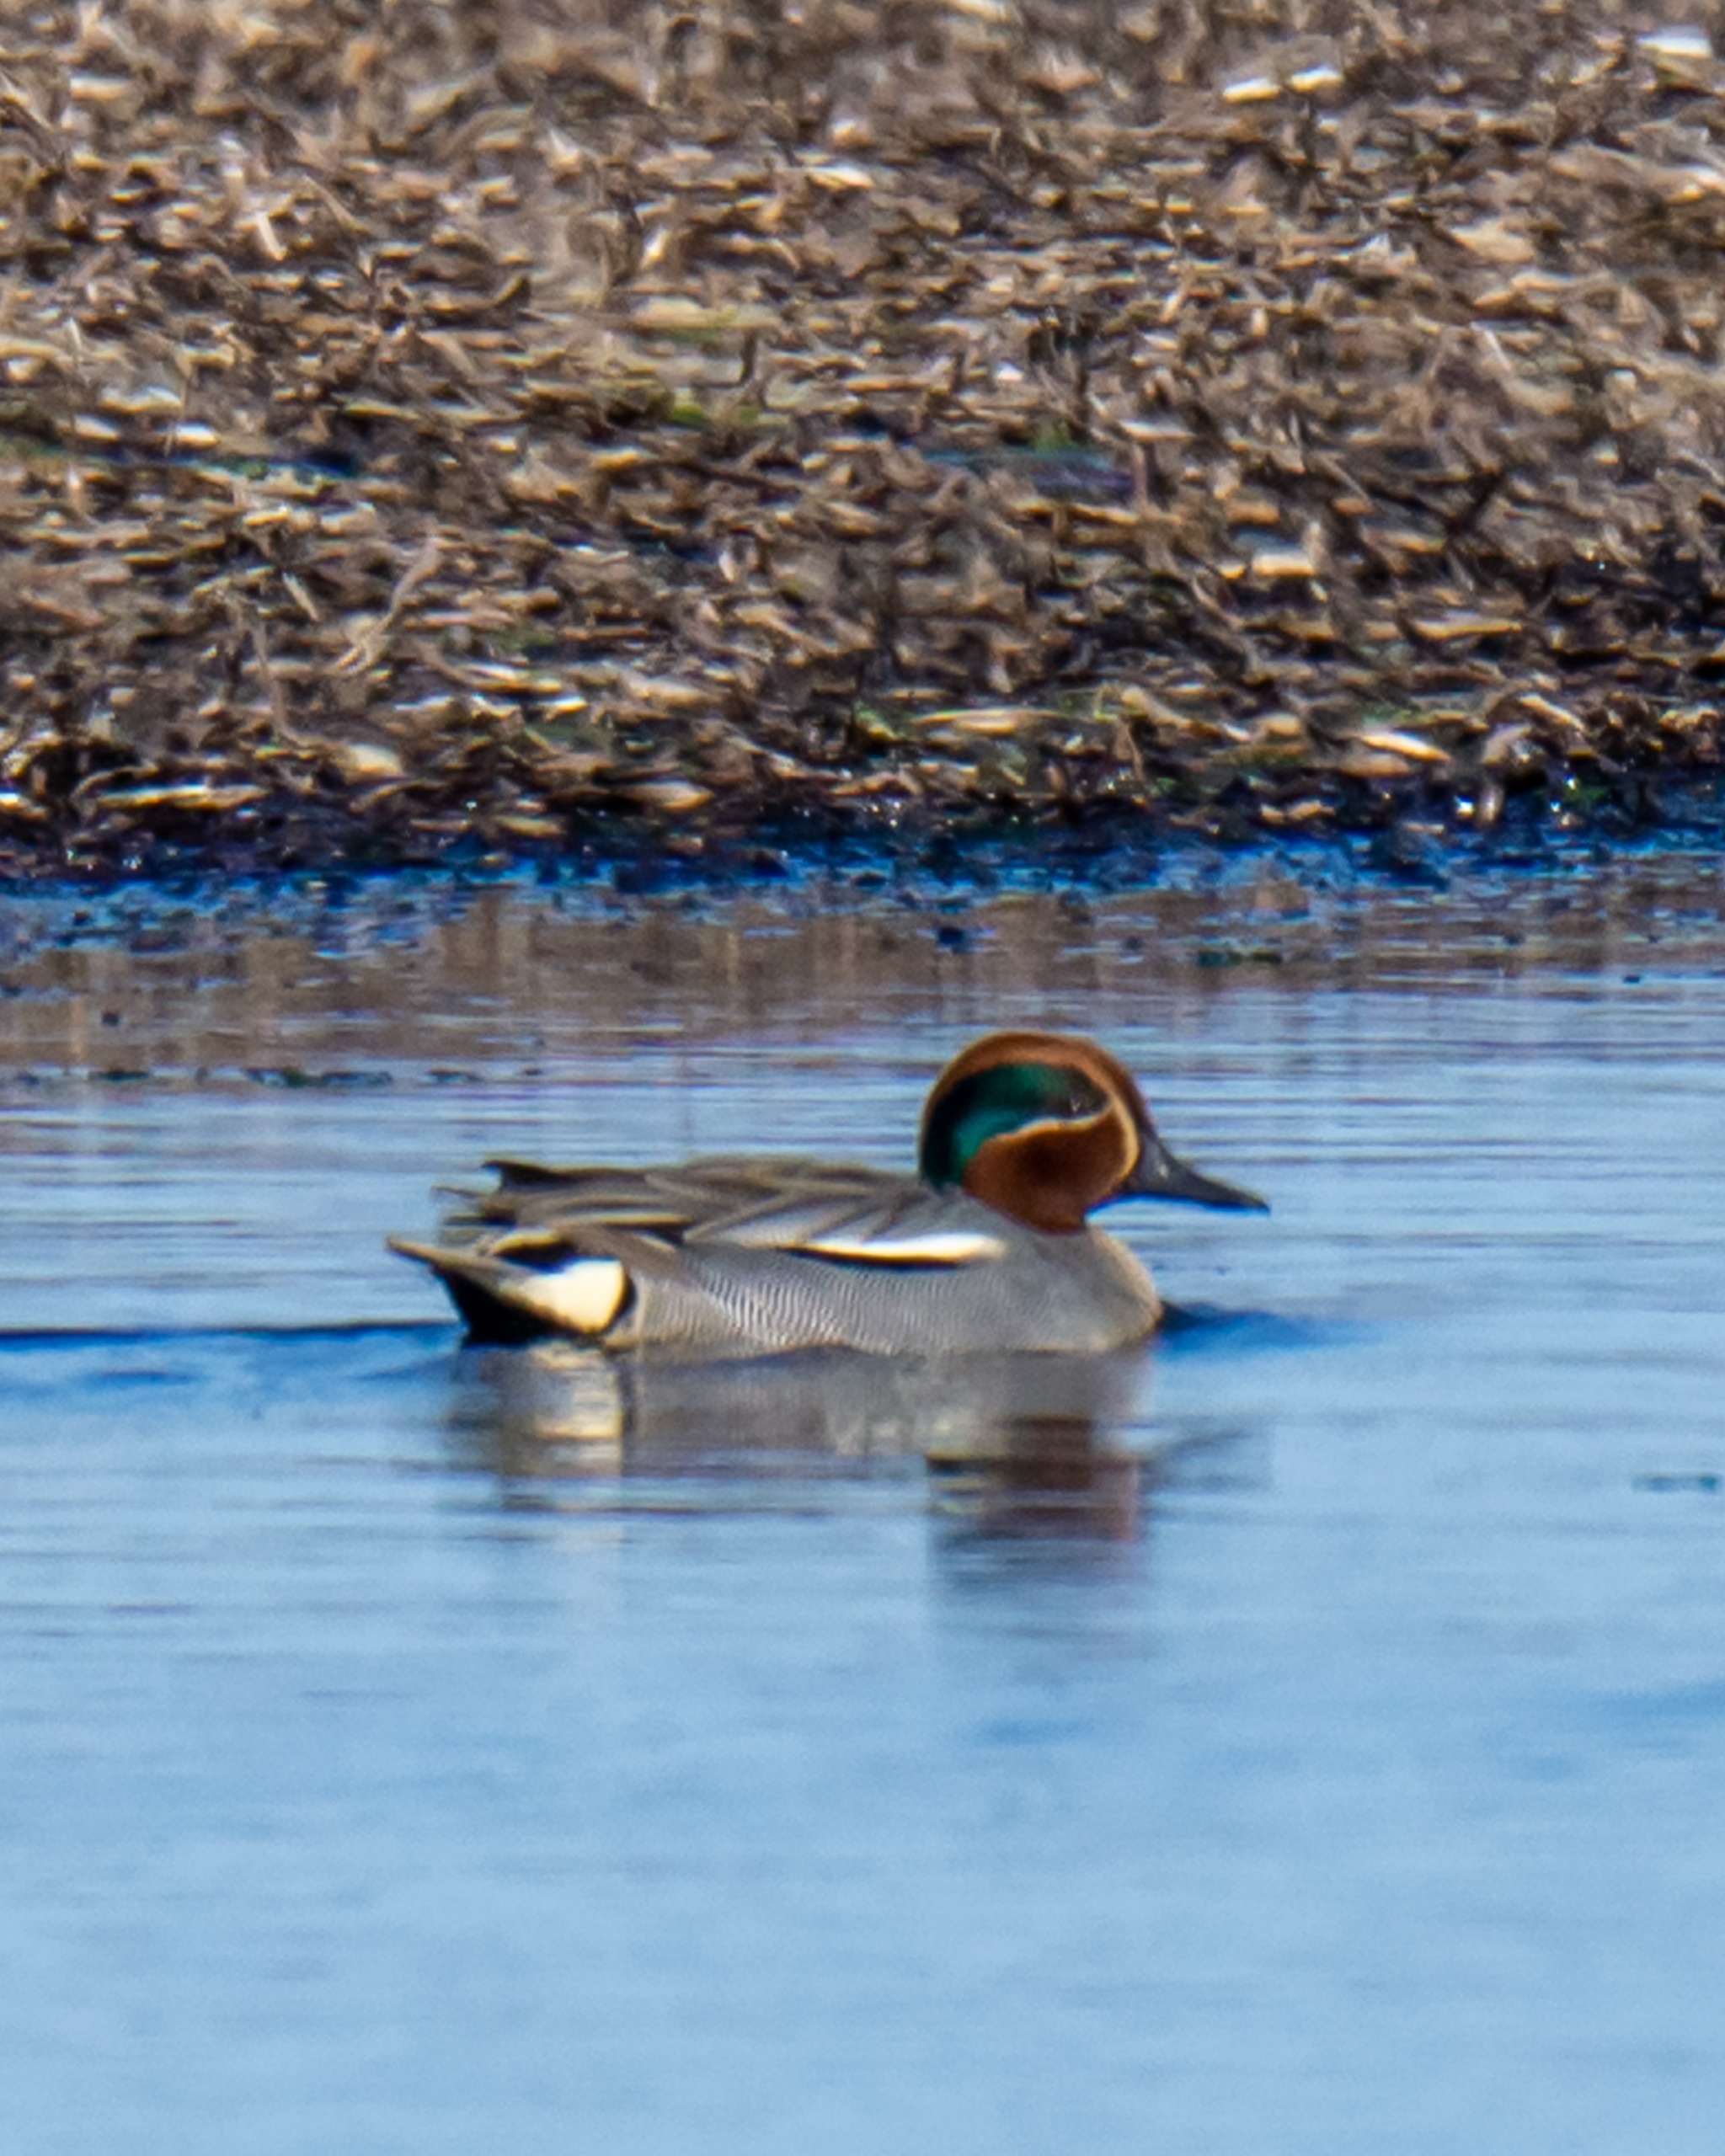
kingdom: Animalia
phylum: Chordata
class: Aves
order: Anseriformes
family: Anatidae
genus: Anas
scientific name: Anas crecca
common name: Krikand
